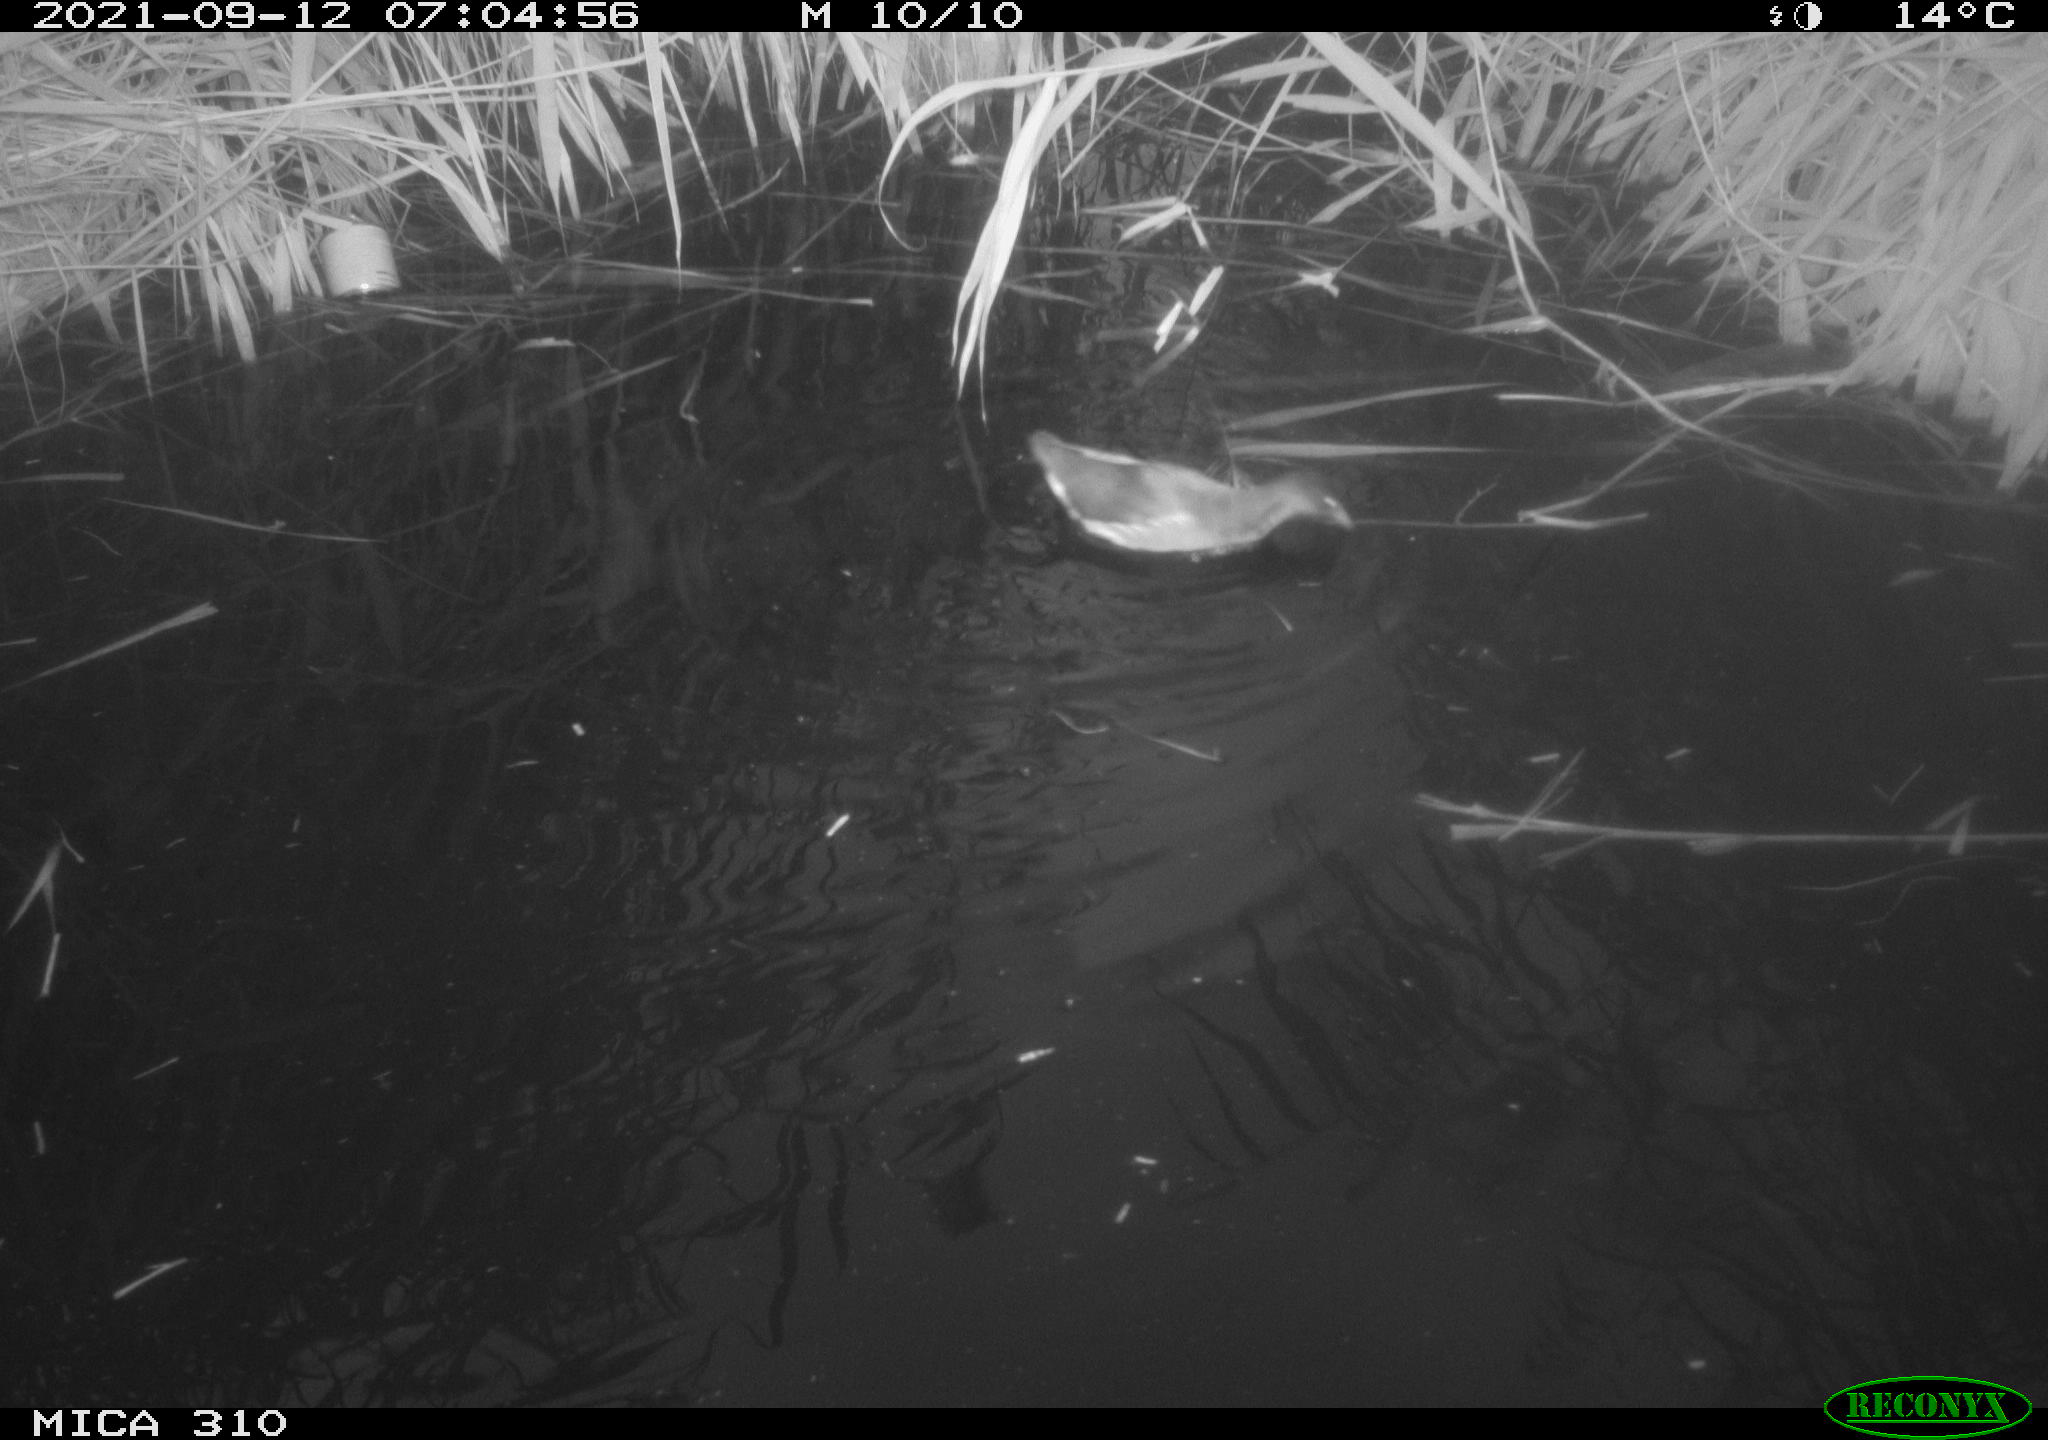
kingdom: Animalia
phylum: Chordata
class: Aves
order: Gruiformes
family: Rallidae
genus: Gallinula
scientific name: Gallinula chloropus
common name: Common moorhen
